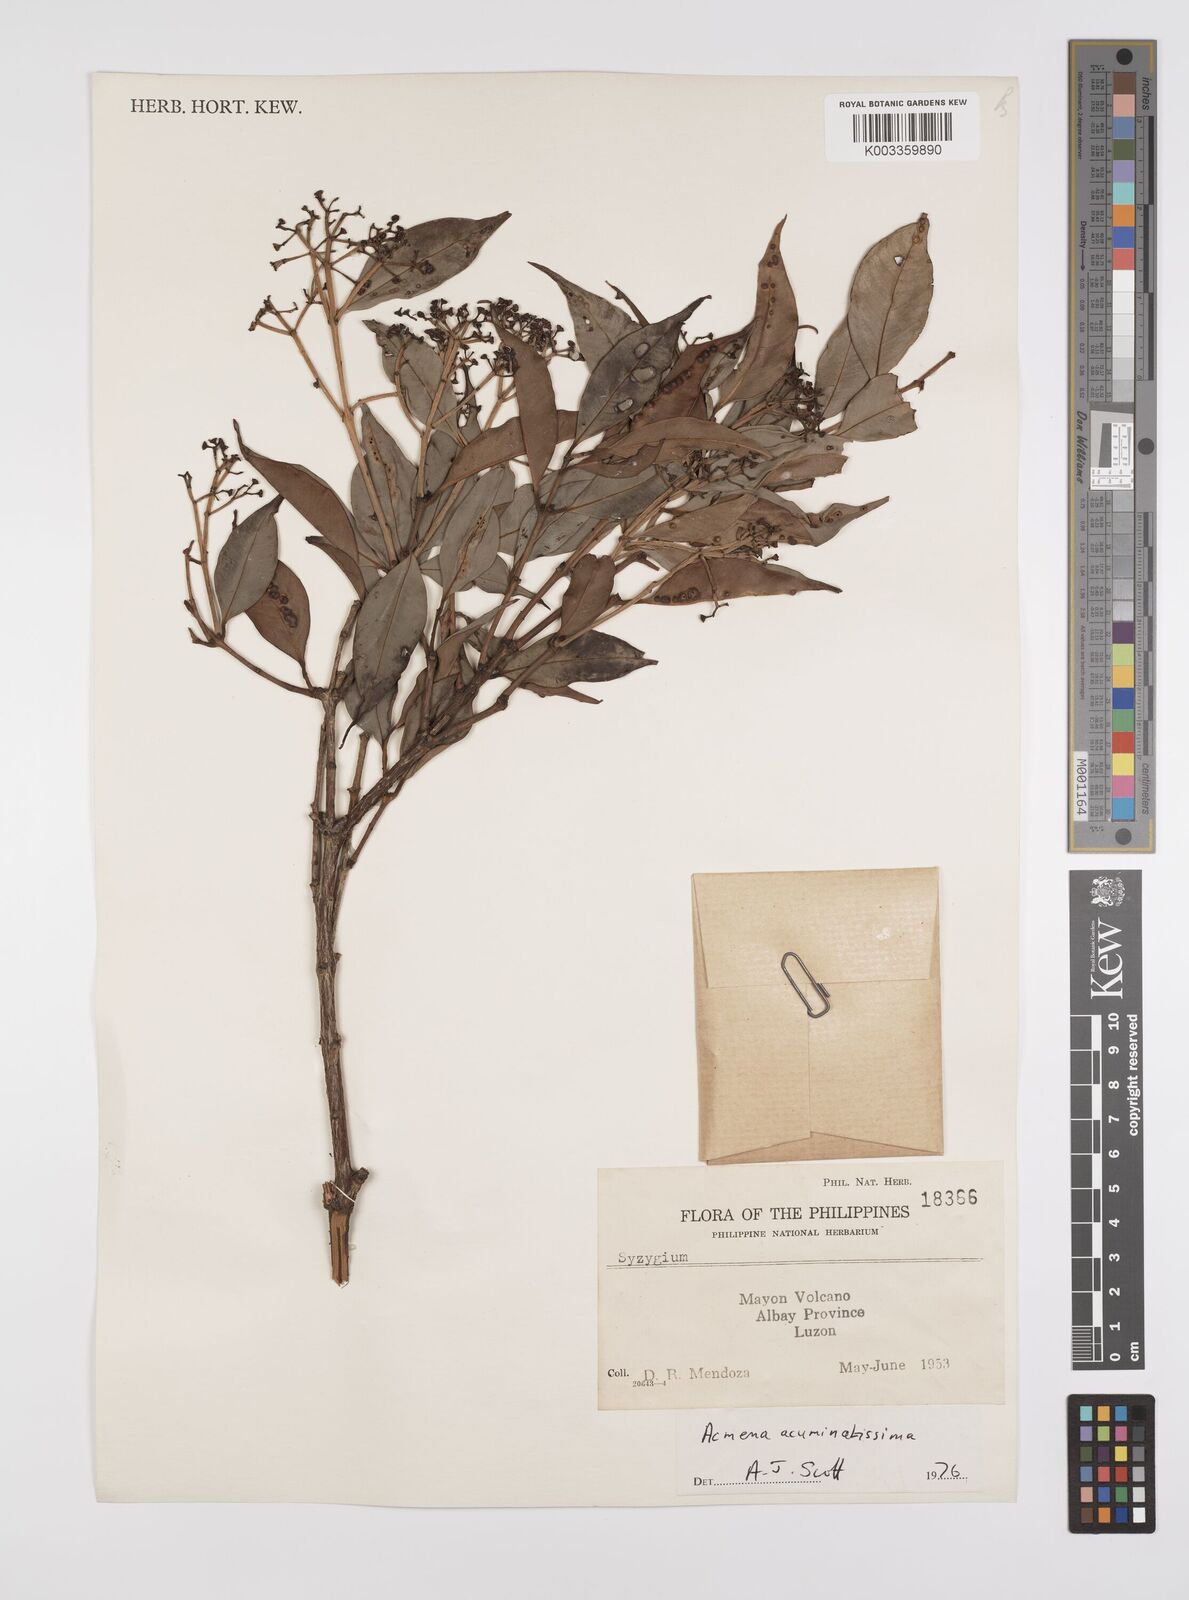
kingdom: Plantae
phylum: Tracheophyta
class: Magnoliopsida
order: Myrtales
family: Myrtaceae
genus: Syzygium
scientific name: Syzygium acuminatissimum
